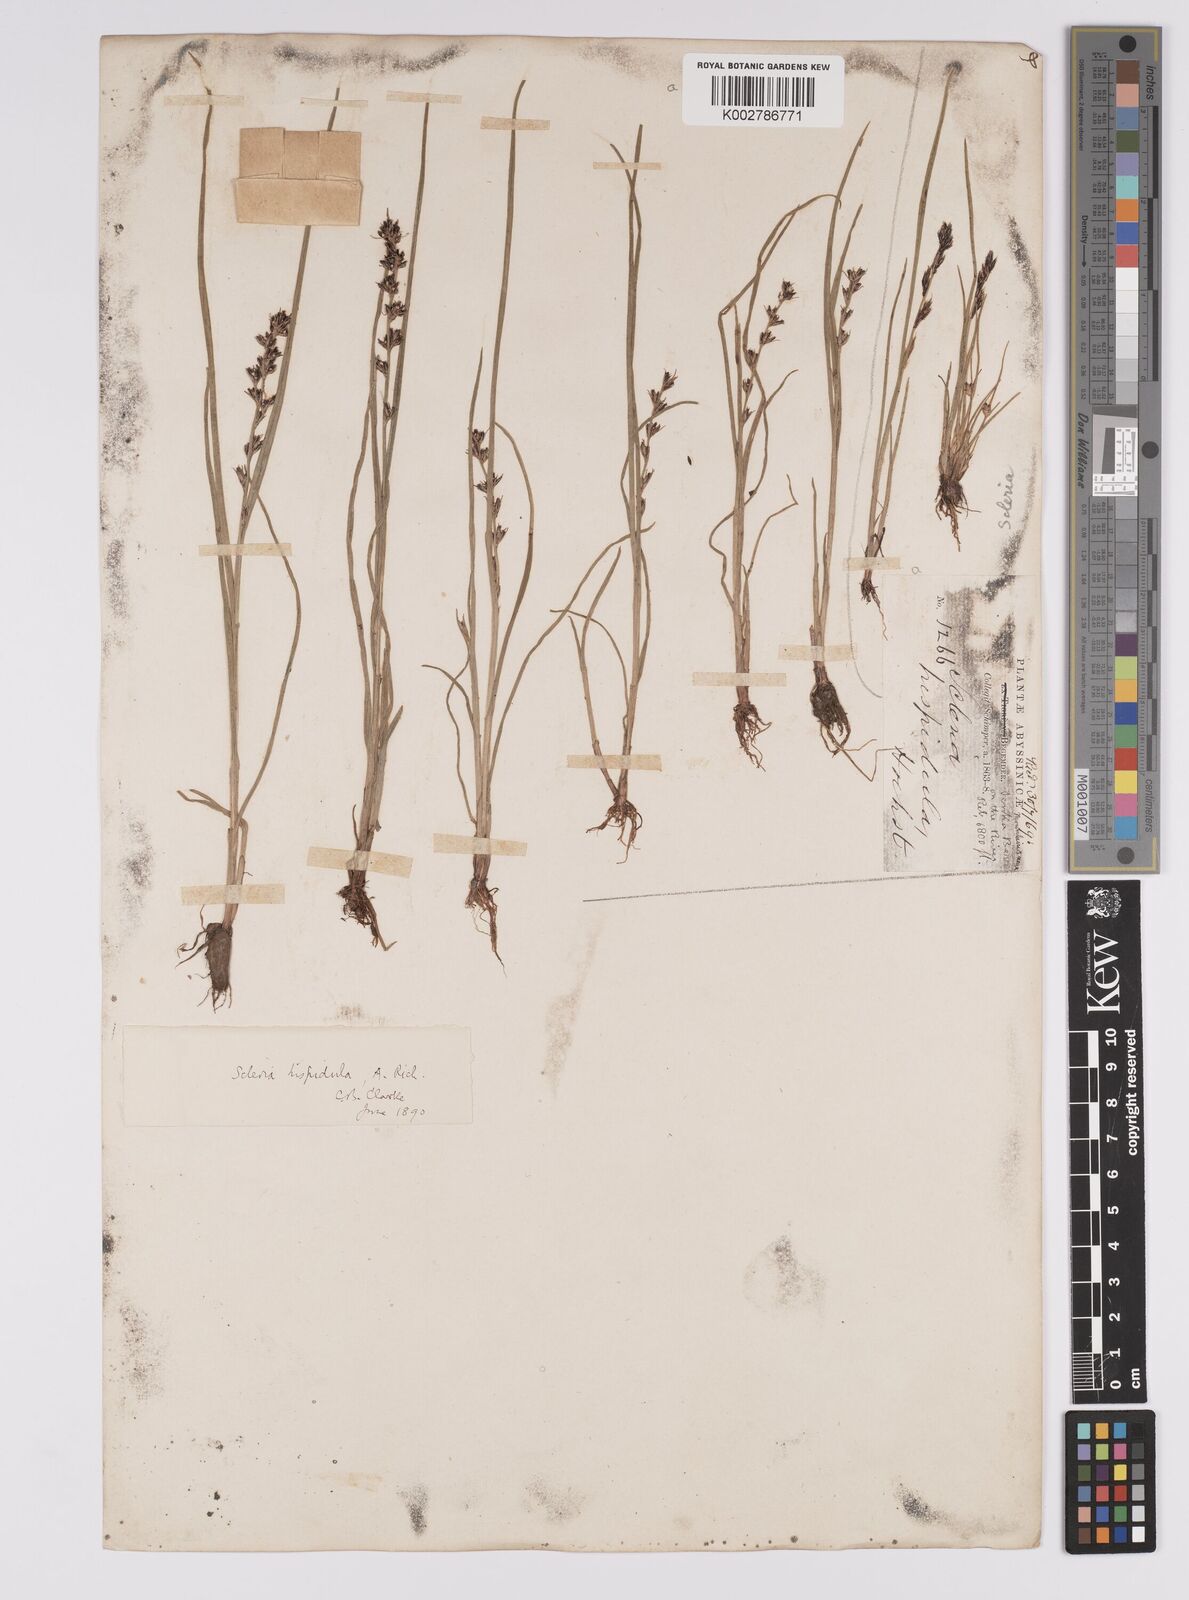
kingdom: Plantae
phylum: Tracheophyta
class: Liliopsida
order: Poales
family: Cyperaceae
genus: Scleria
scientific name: Scleria hispidula
